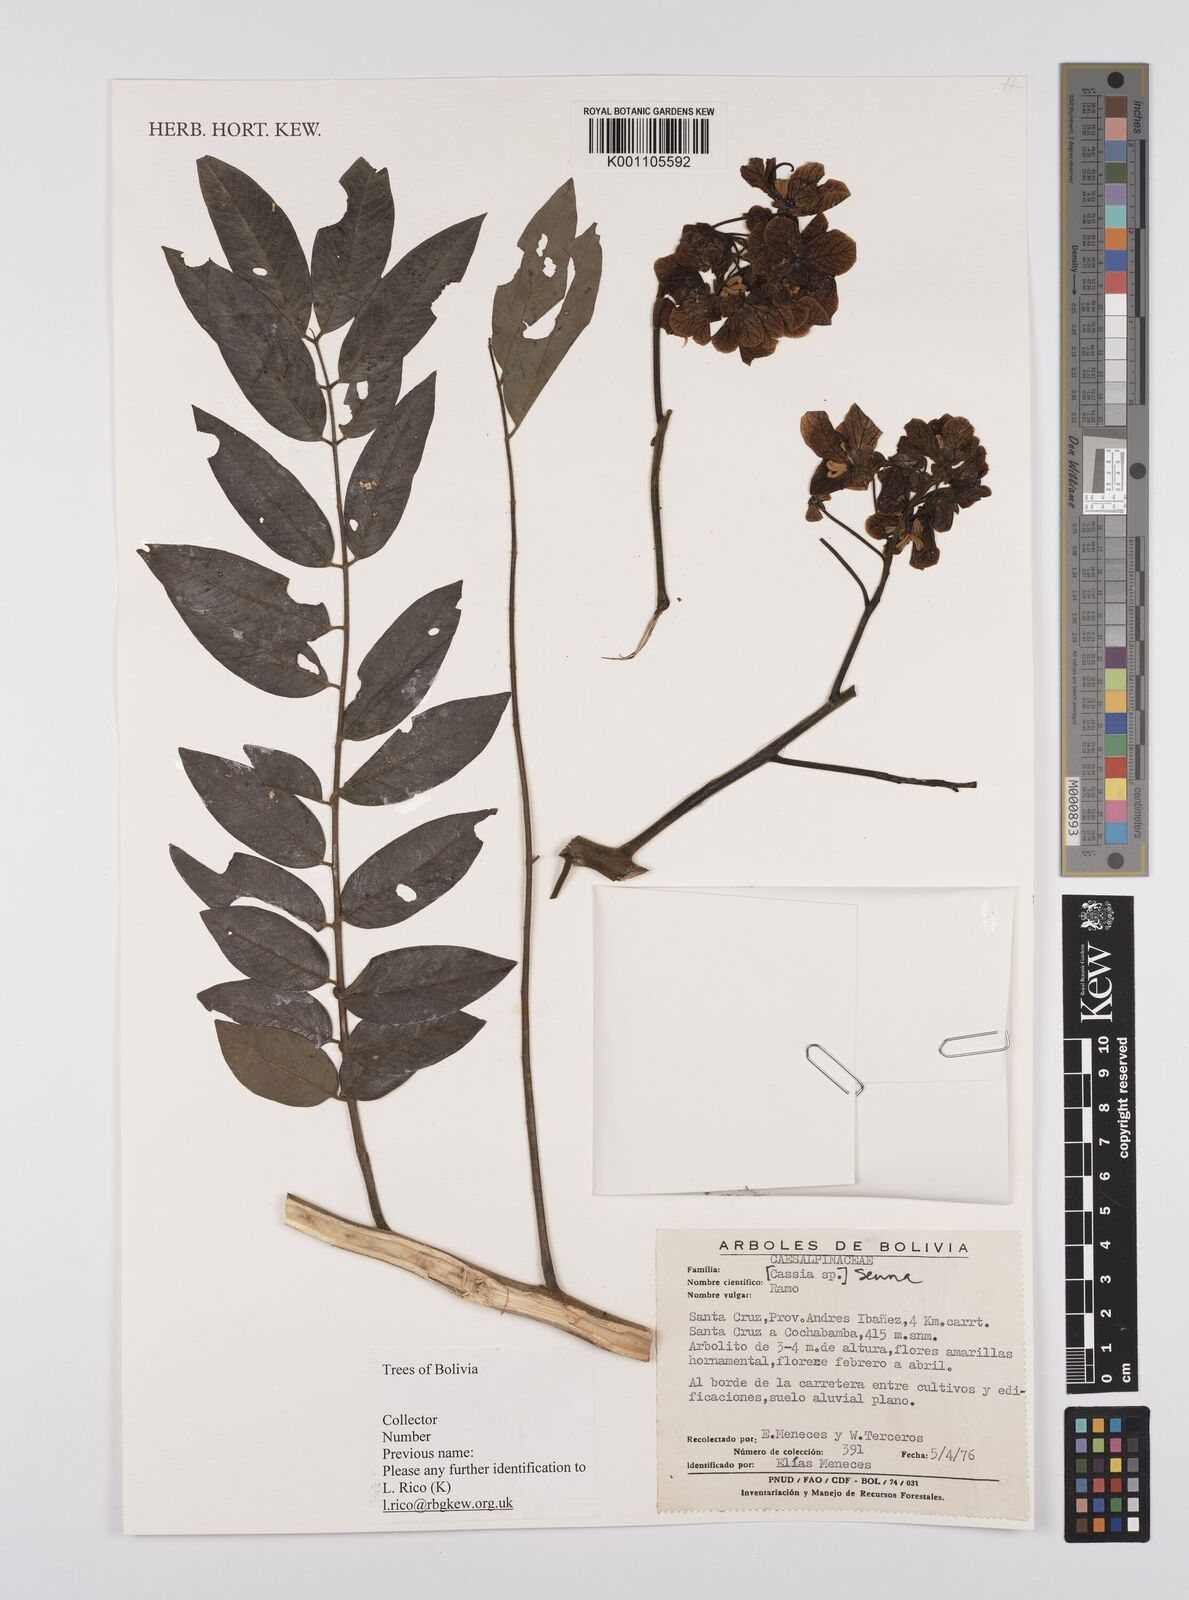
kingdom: Plantae
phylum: Tracheophyta
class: Magnoliopsida
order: Fabales
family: Fabaceae
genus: Senna
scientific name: Senna
